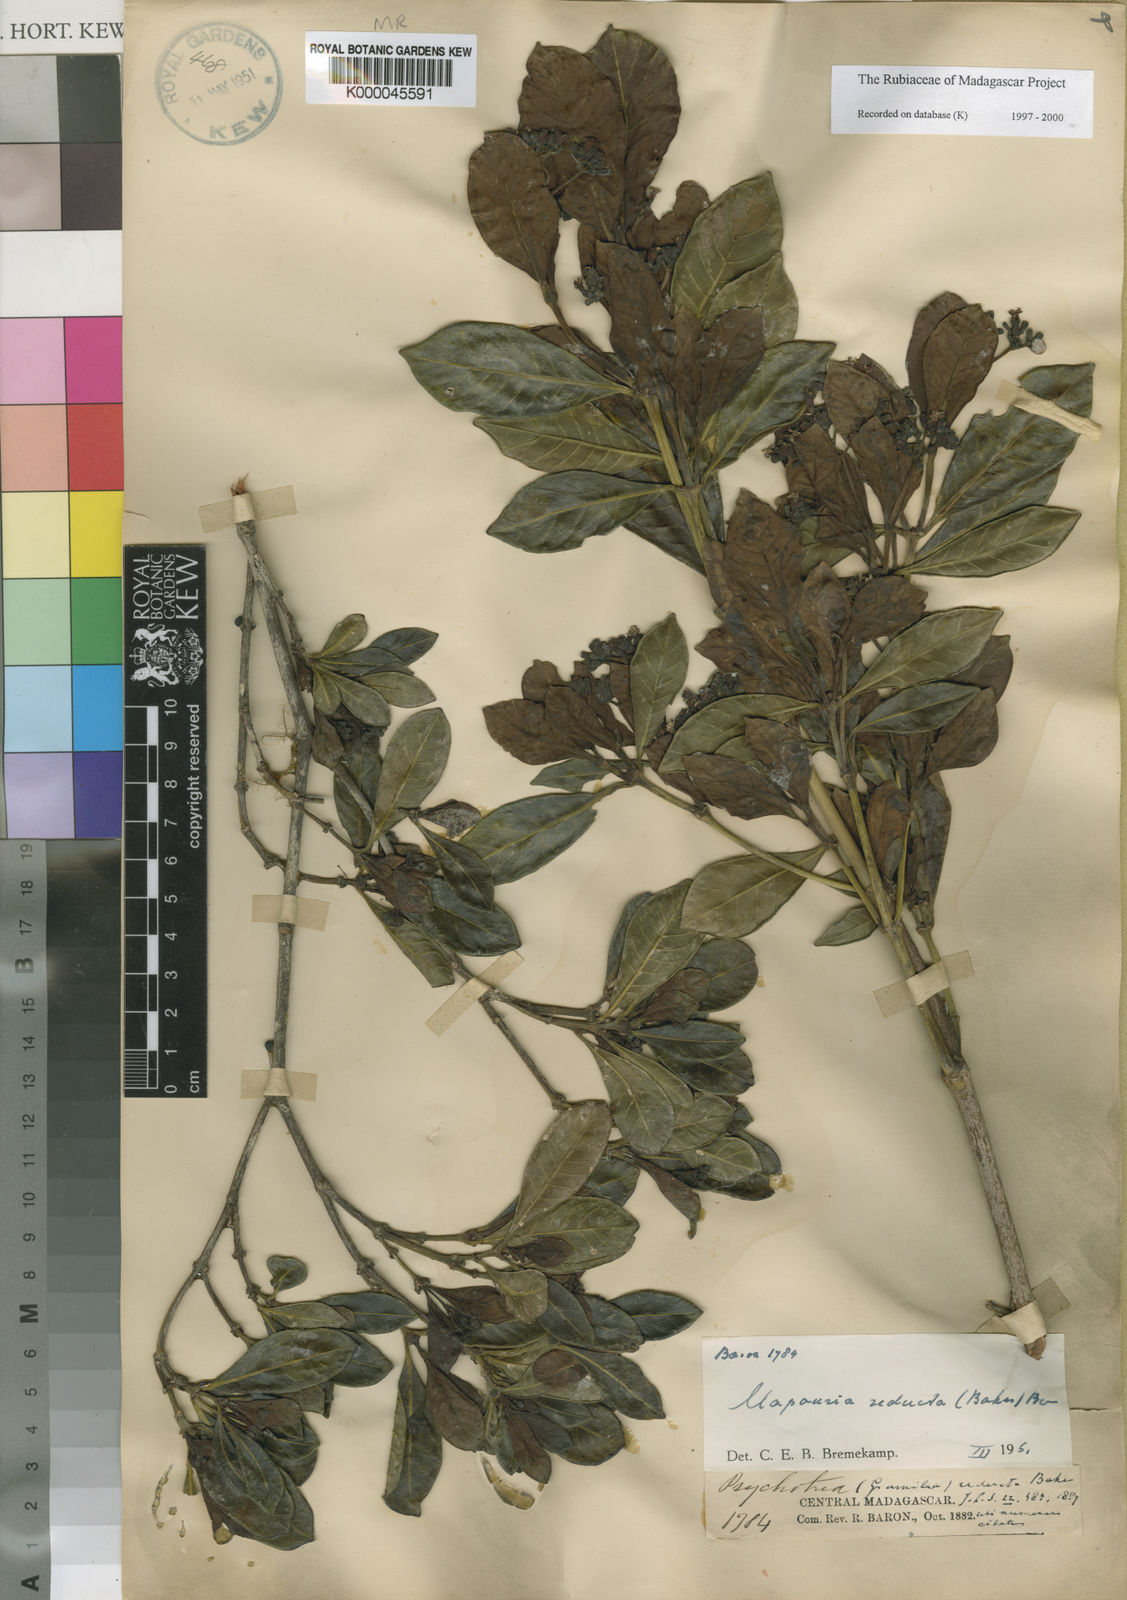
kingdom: Plantae
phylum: Tracheophyta
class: Magnoliopsida
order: Gentianales
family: Rubiaceae
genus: Psychotria
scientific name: Psychotria reducta
